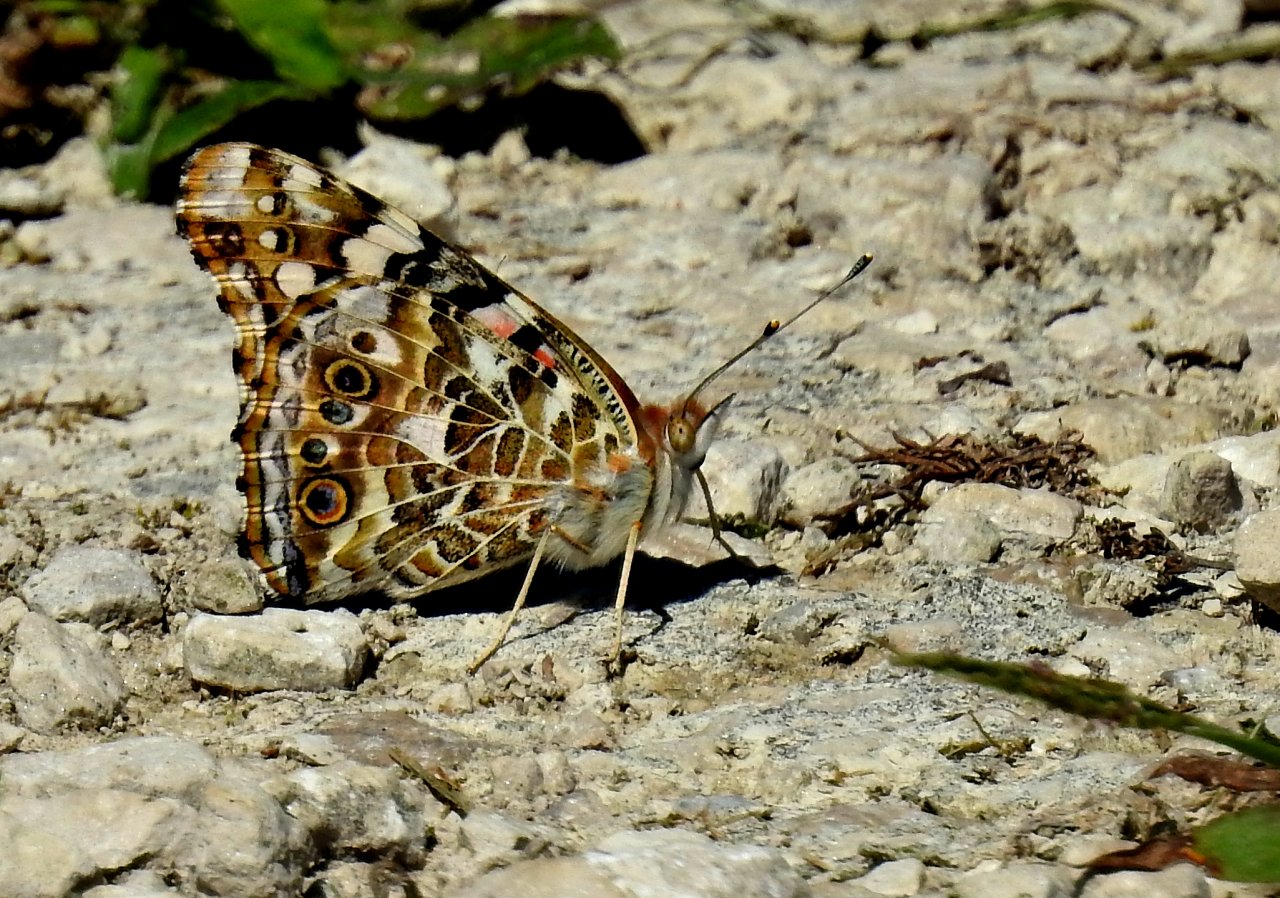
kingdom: Animalia
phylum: Arthropoda
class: Insecta
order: Lepidoptera
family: Nymphalidae
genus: Vanessa
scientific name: Vanessa cardui
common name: Painted Lady
